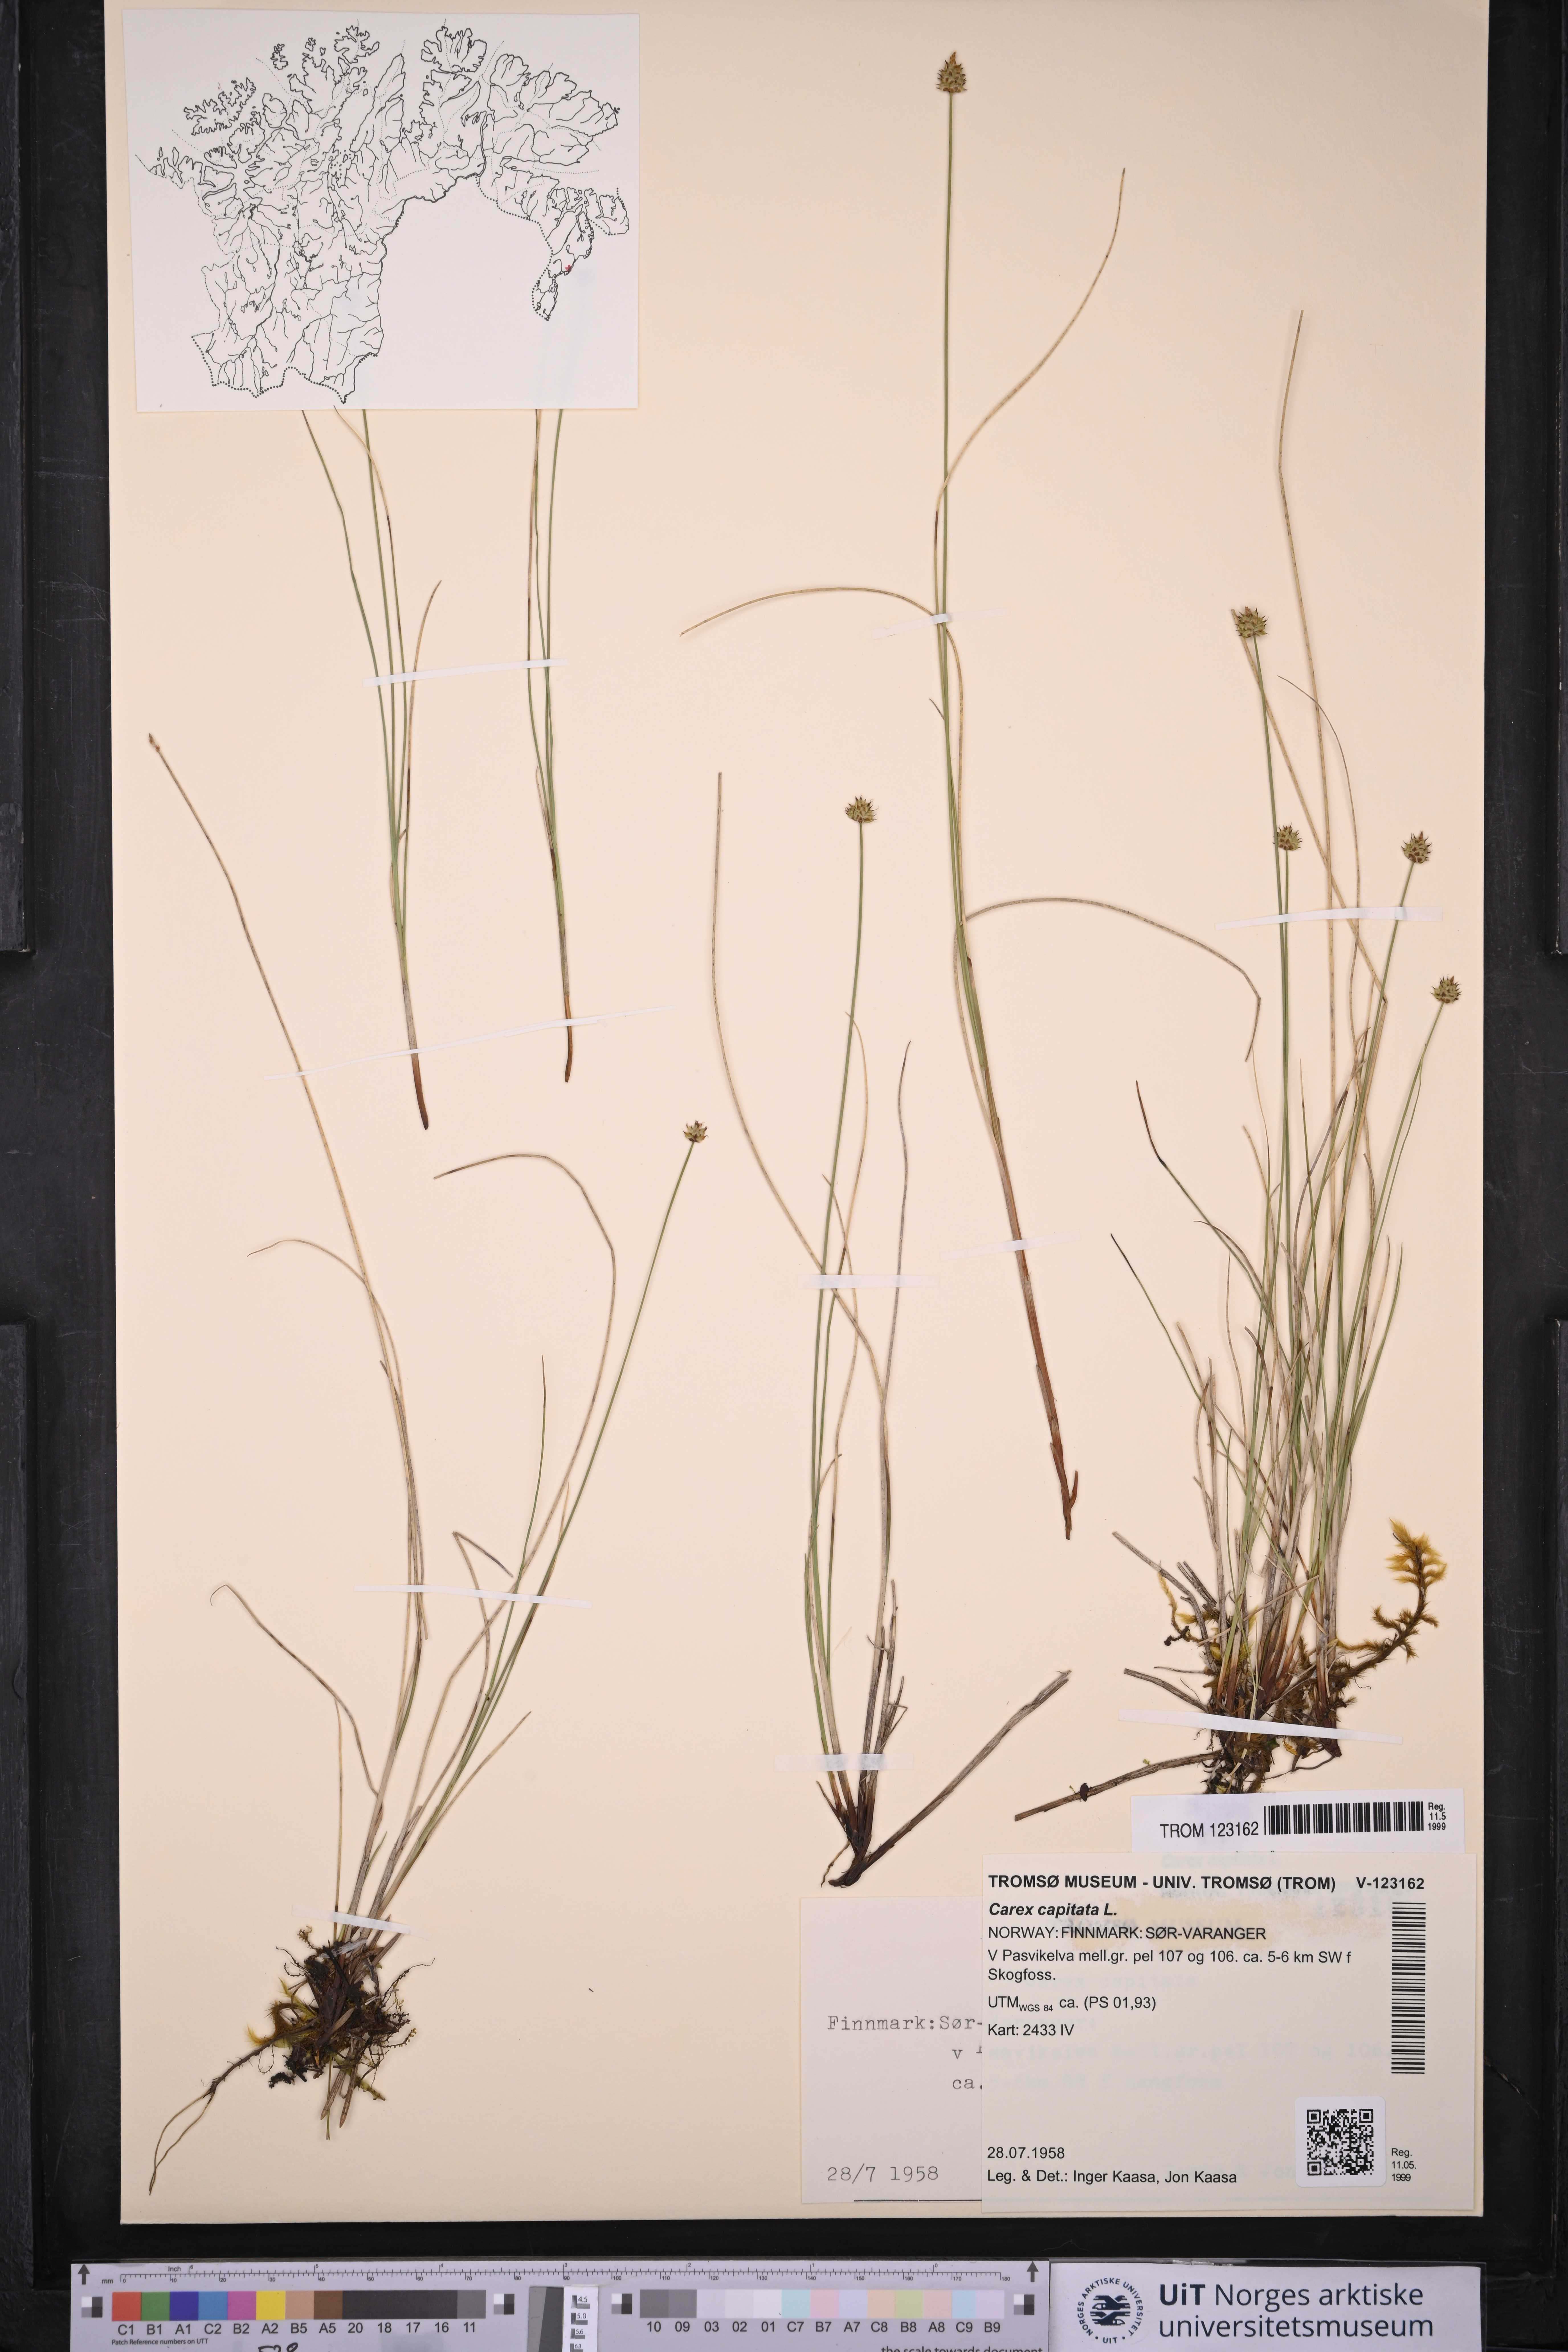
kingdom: Plantae
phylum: Tracheophyta
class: Liliopsida
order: Poales
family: Cyperaceae
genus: Carex
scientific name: Carex capitata
